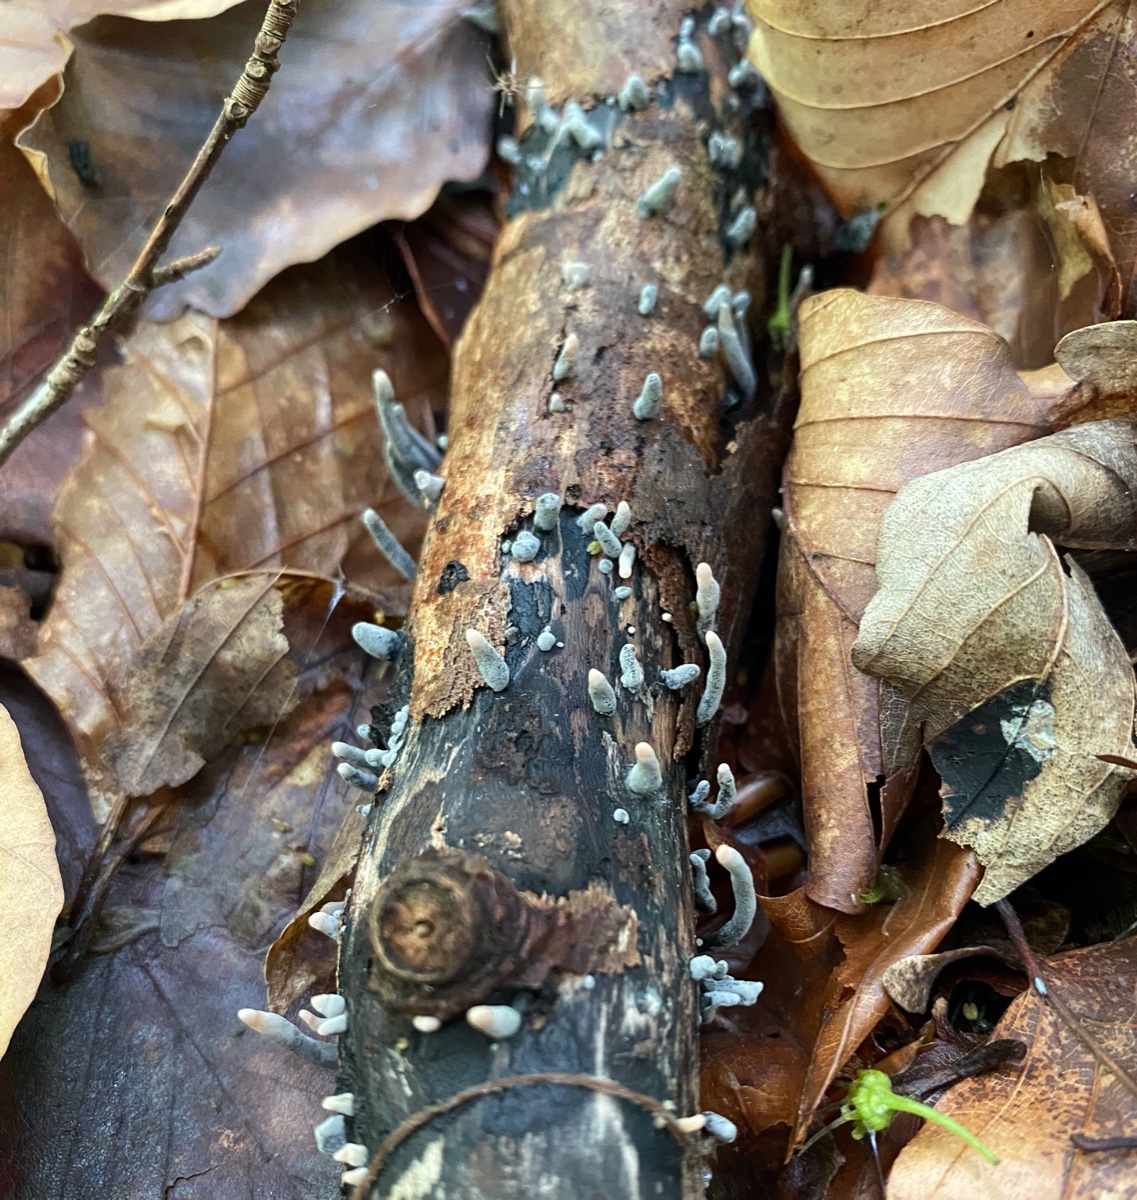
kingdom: Fungi
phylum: Ascomycota
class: Sordariomycetes
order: Xylariales
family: Xylariaceae
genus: Xylaria
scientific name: Xylaria longipes
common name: slank stødsvamp
